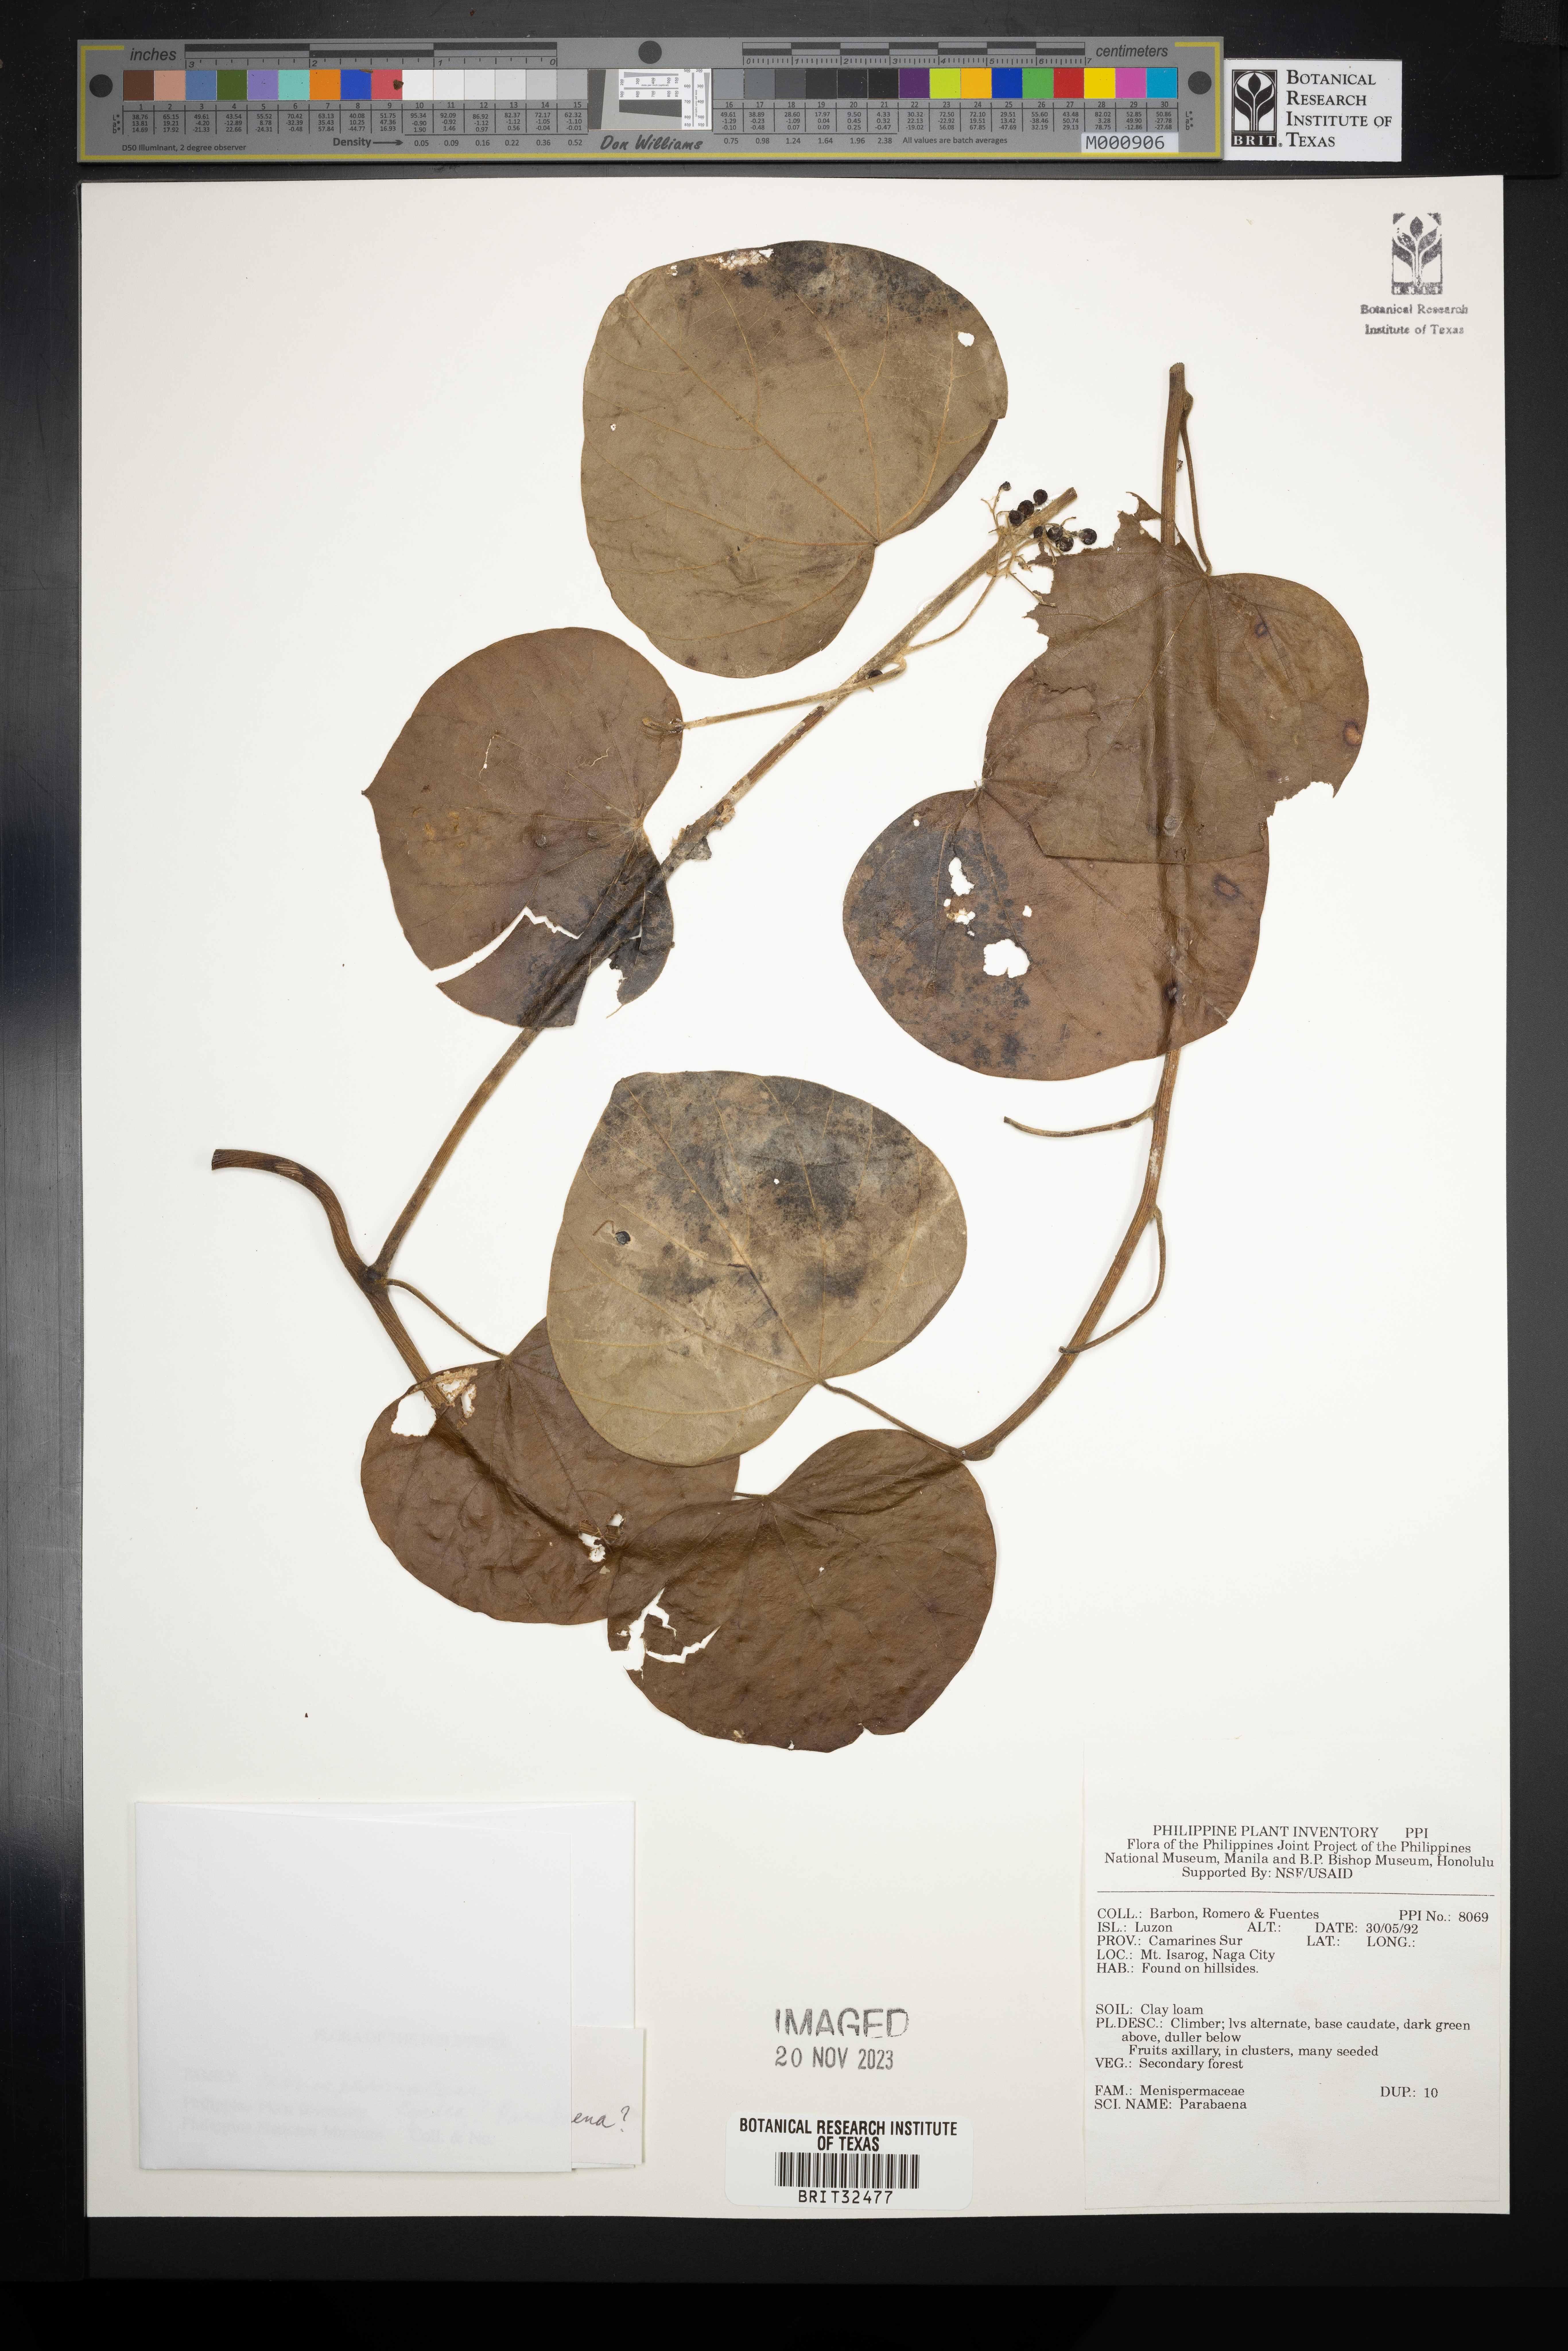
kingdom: Plantae
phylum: Tracheophyta
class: Magnoliopsida
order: Ranunculales
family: Menispermaceae
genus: Parabaena
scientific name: Parabaena
